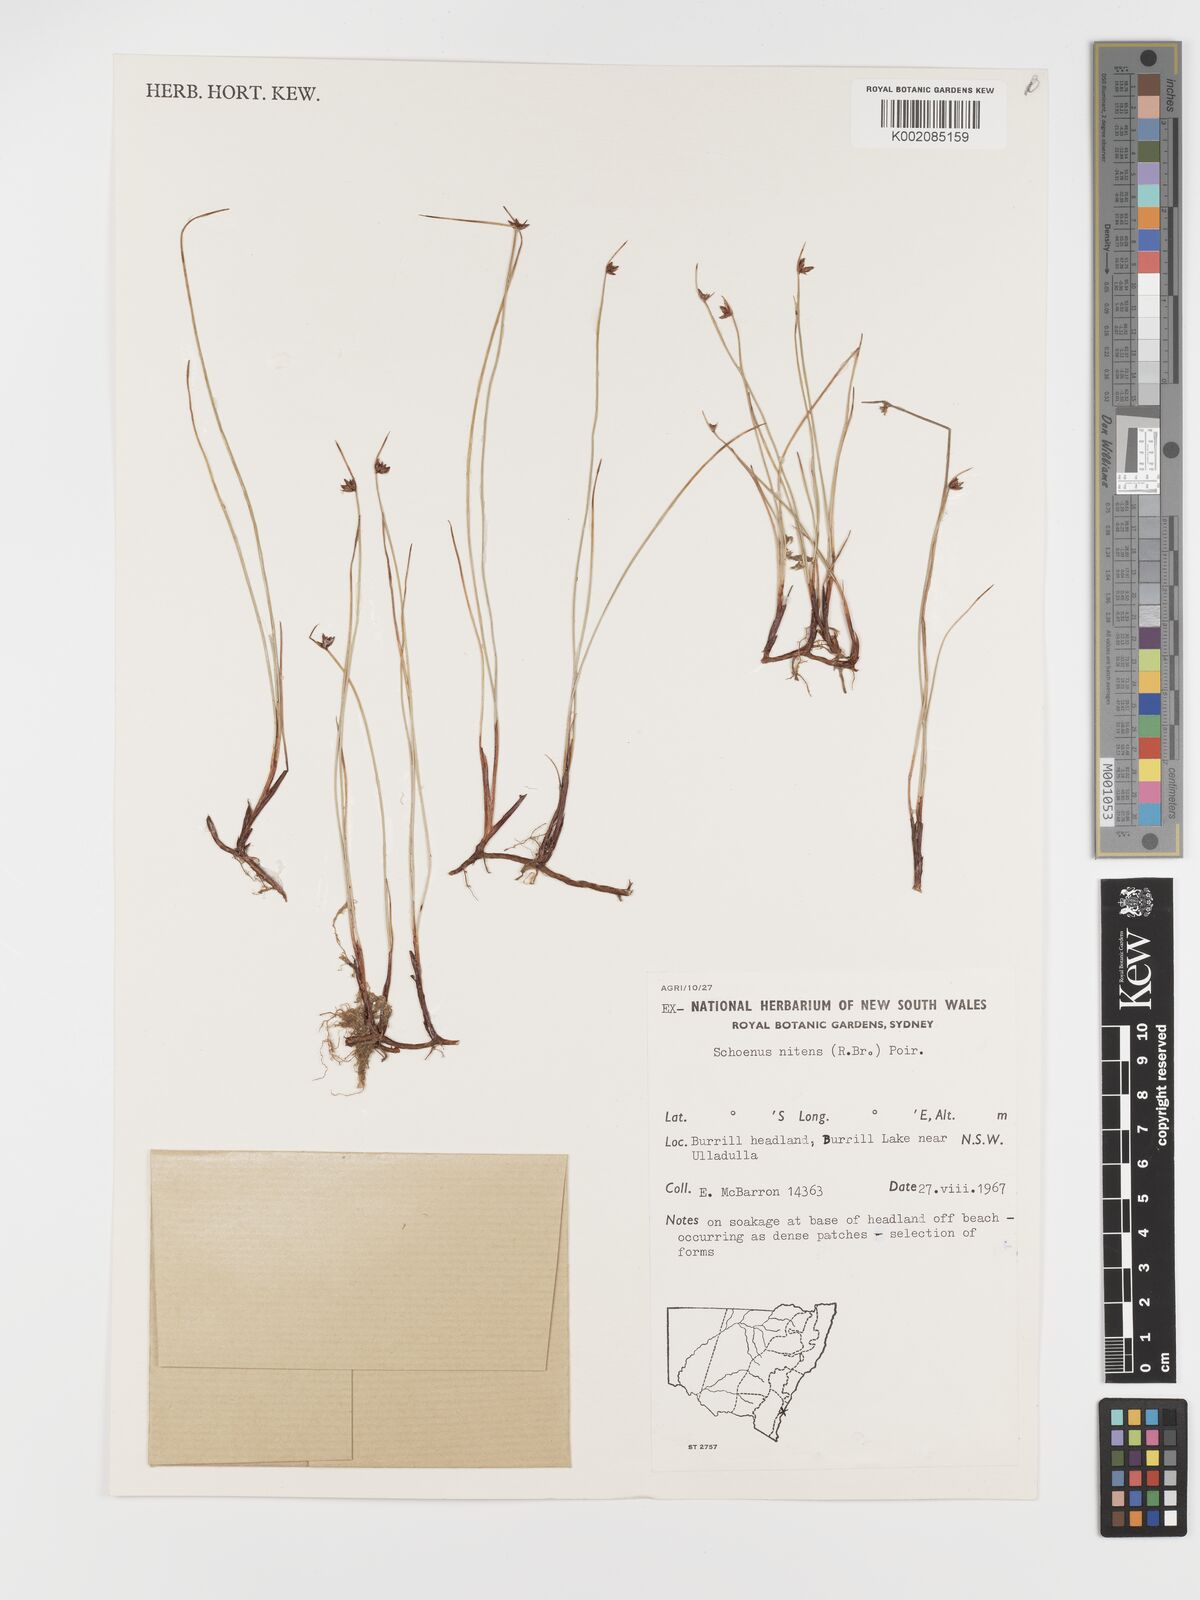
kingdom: Plantae
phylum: Tracheophyta
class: Liliopsida
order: Poales
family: Cyperaceae
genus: Schoenus
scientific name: Schoenus nitens
